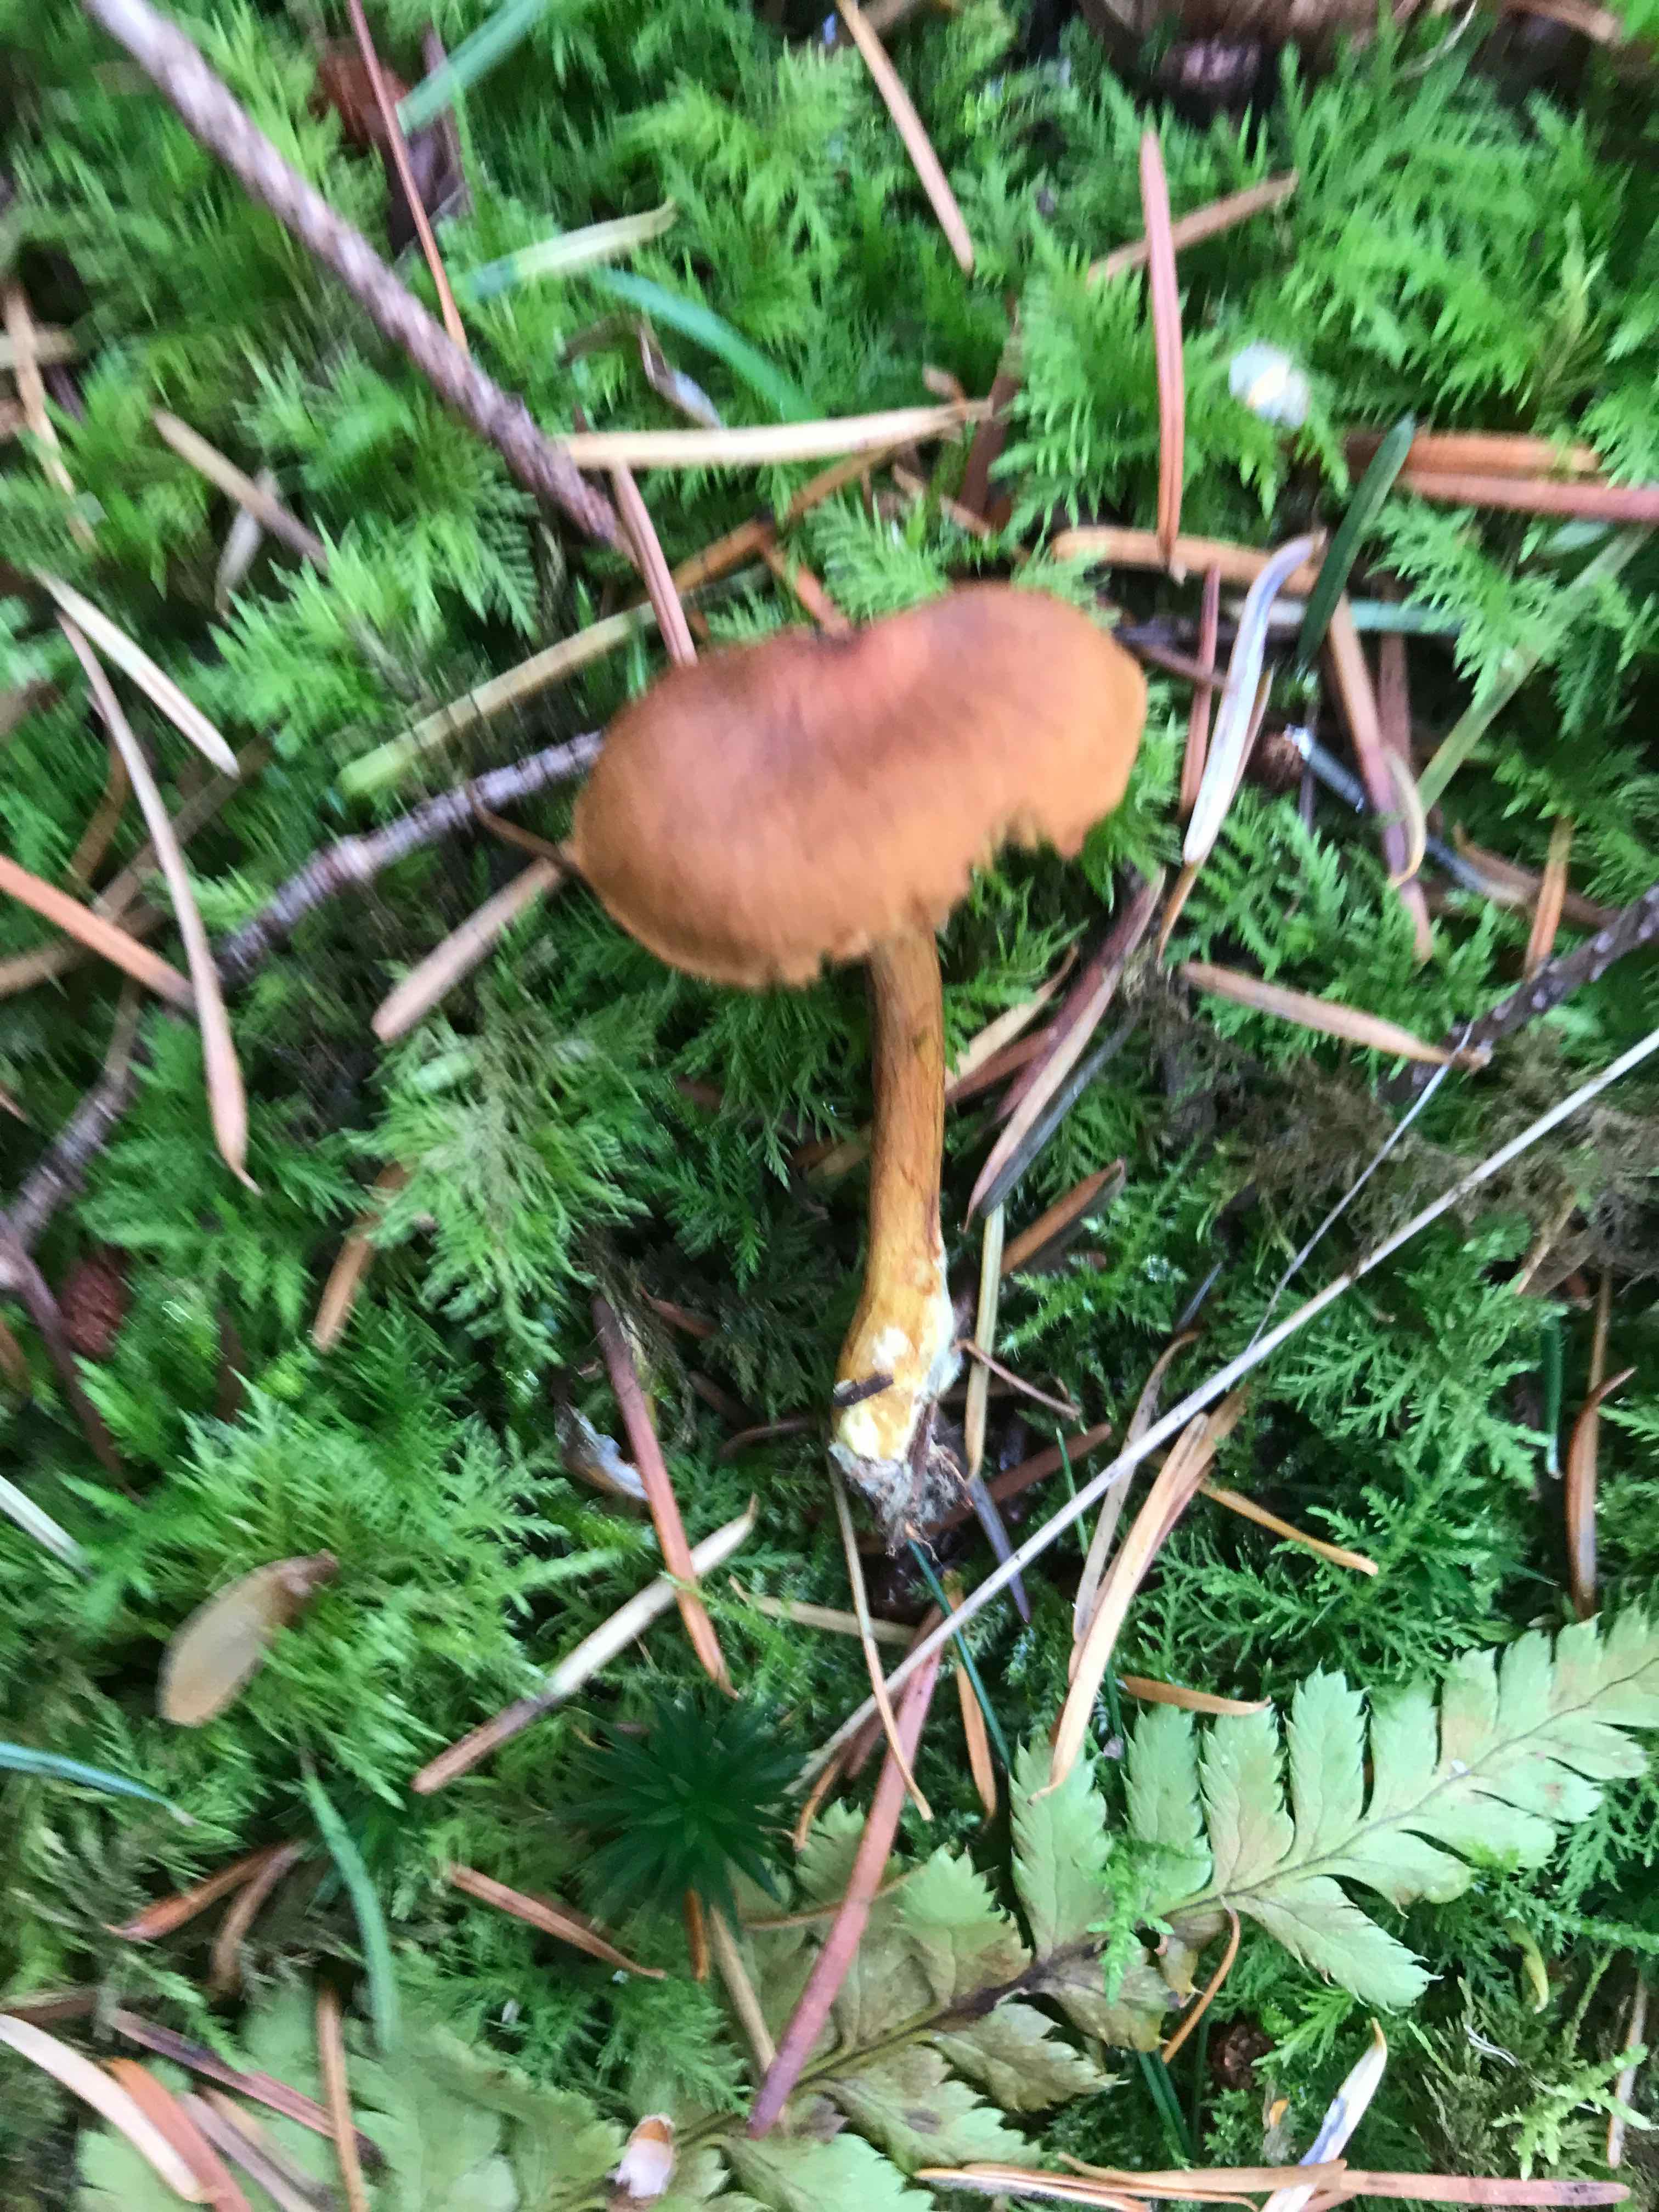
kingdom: Fungi
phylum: Basidiomycota
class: Agaricomycetes
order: Agaricales
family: Cortinariaceae
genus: Cortinarius
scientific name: Cortinarius
